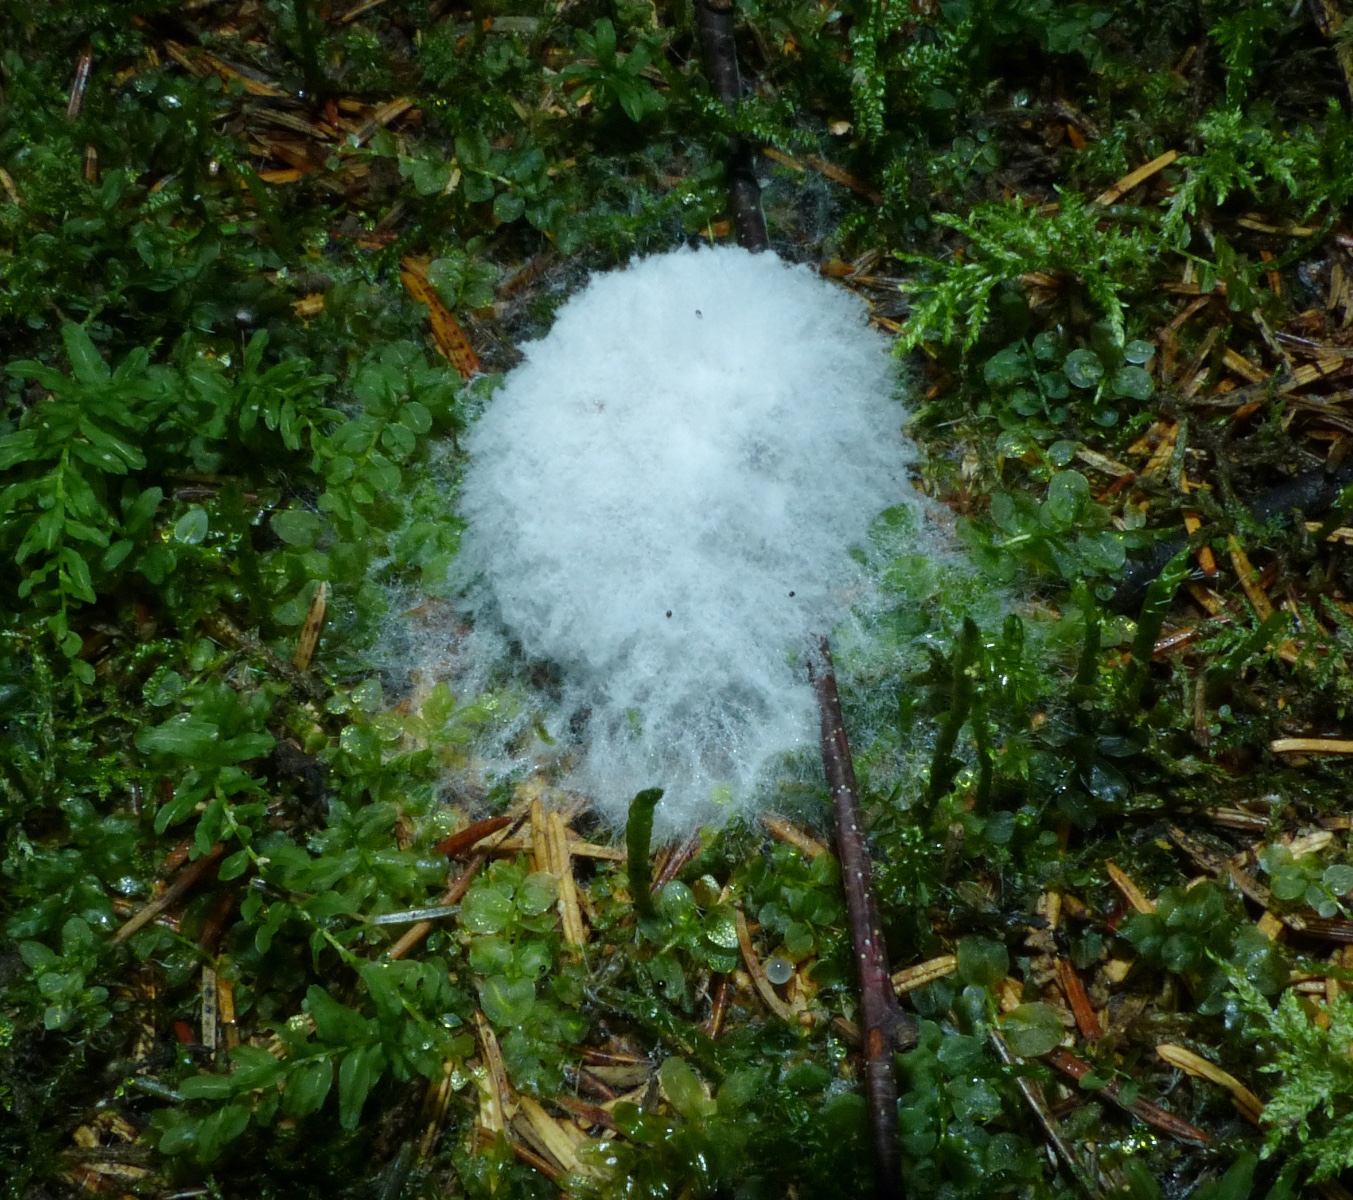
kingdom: Fungi
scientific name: Fungi
